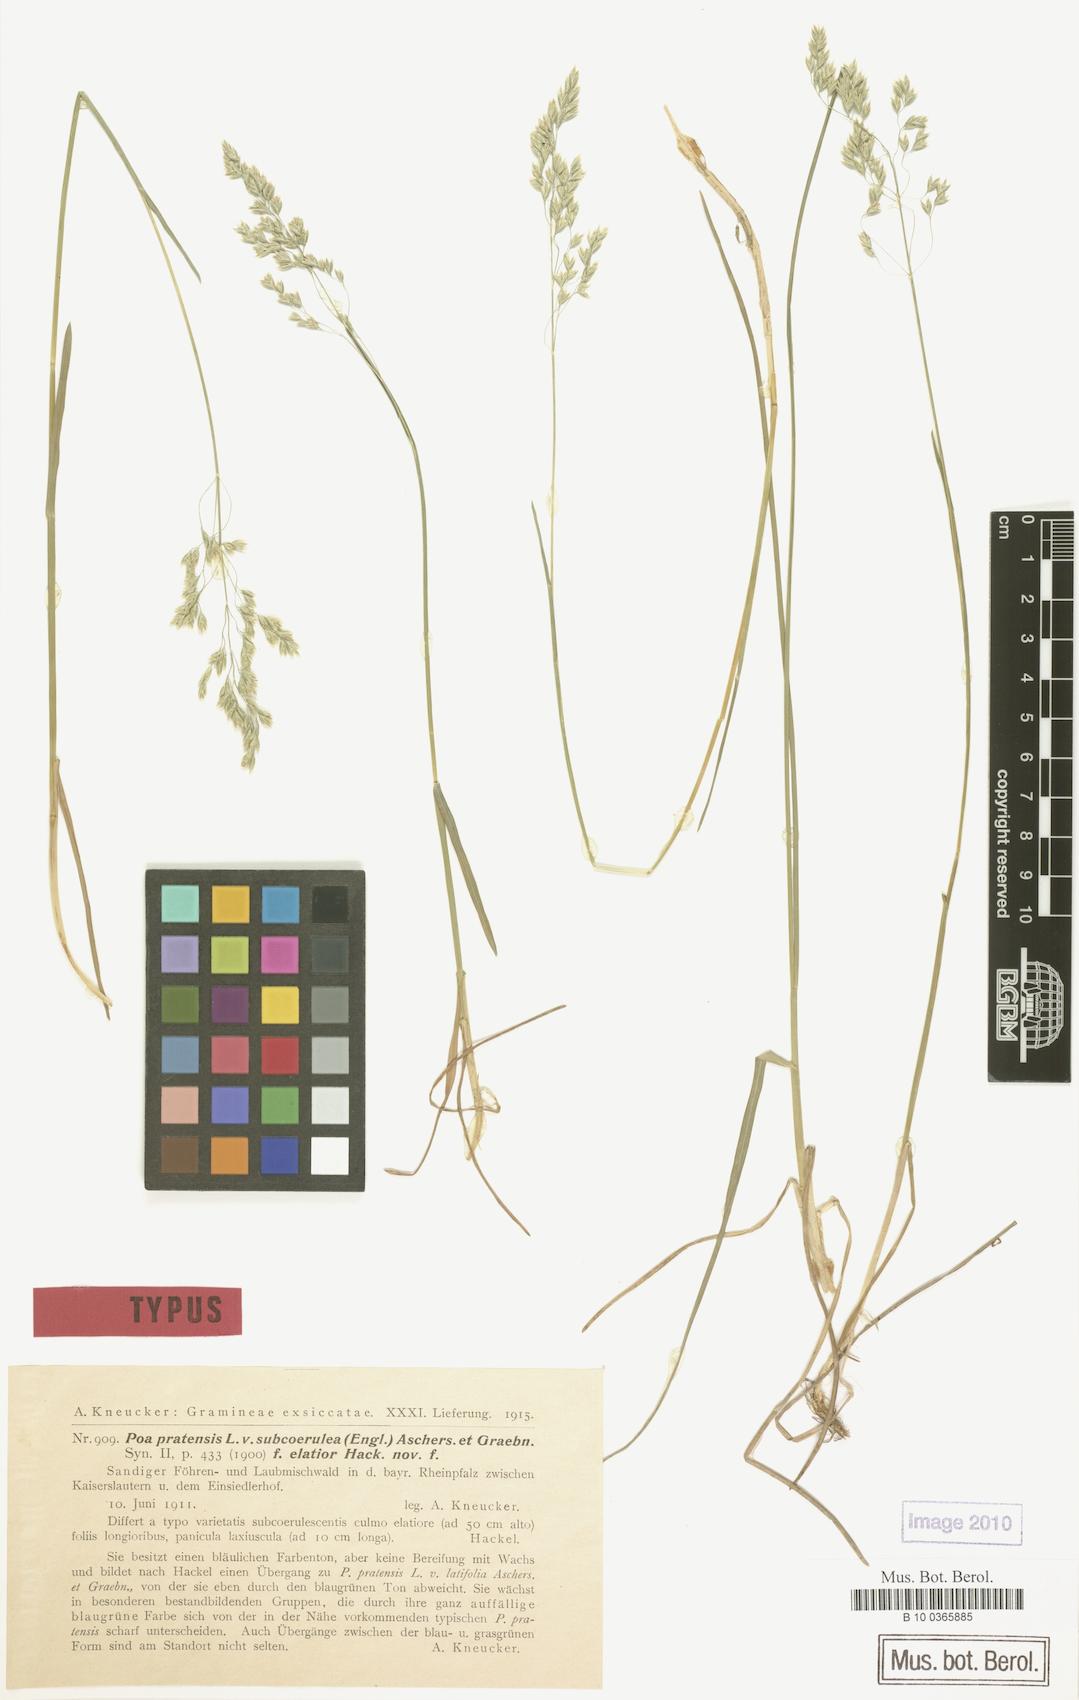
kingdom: Plantae
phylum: Tracheophyta
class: Liliopsida
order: Poales
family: Poaceae
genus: Poa
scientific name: Poa pratensis
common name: Kentucky bluegrass
